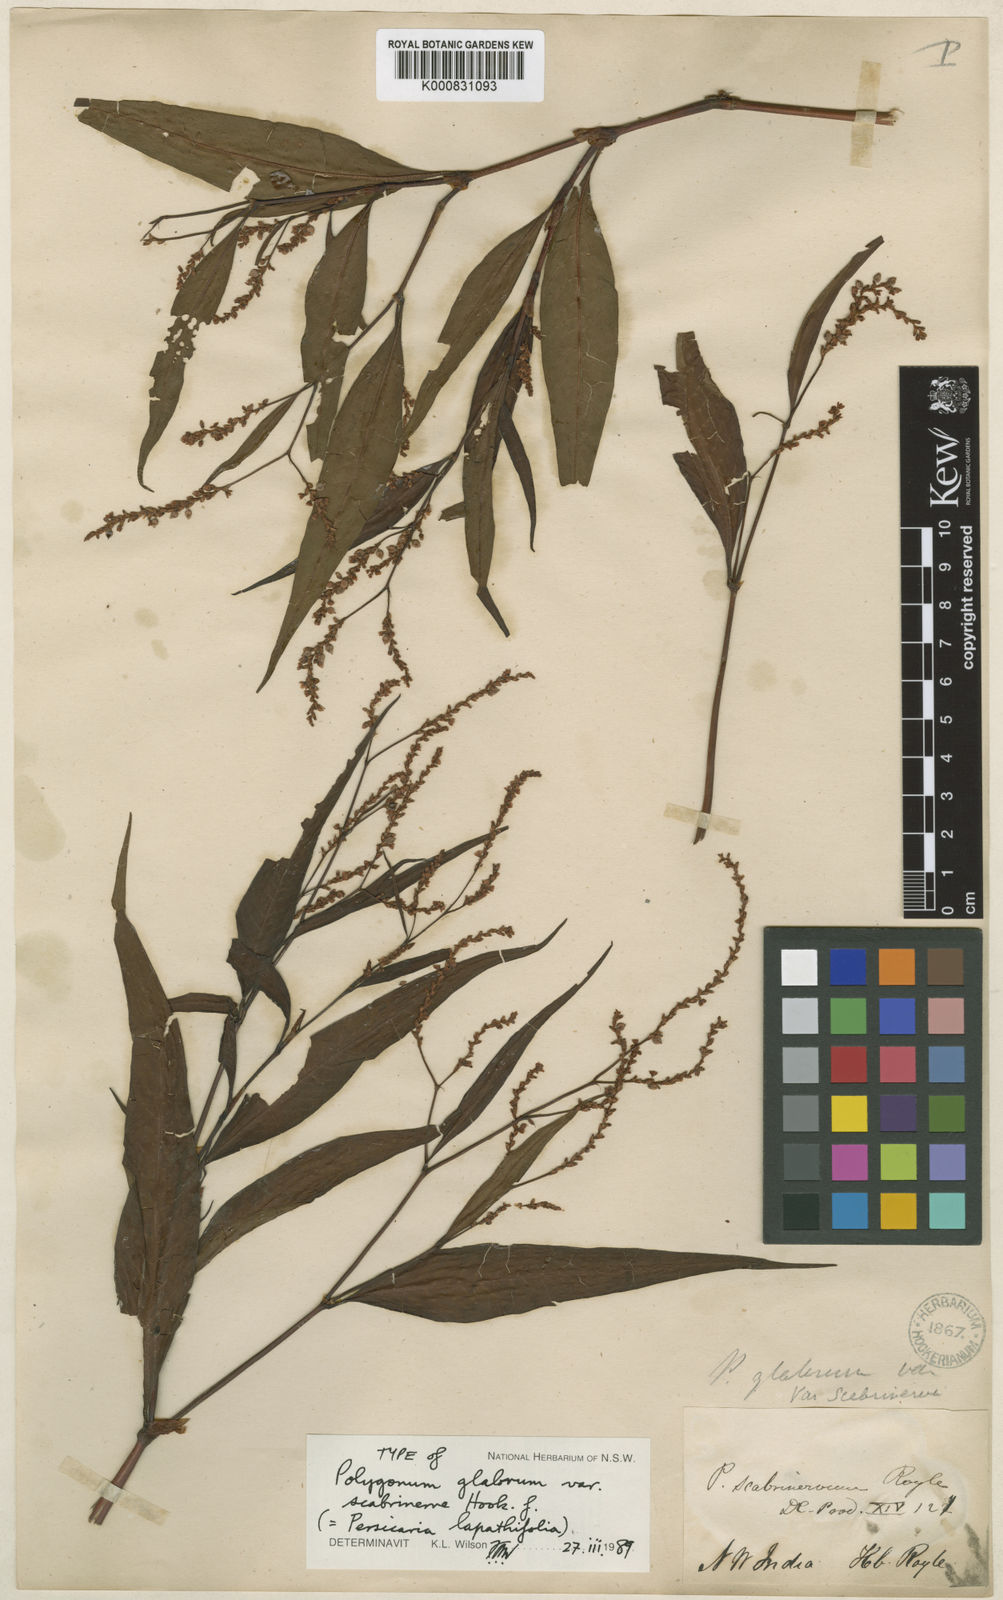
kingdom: Plantae
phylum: Tracheophyta
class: Magnoliopsida
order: Caryophyllales
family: Polygonaceae
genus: Persicaria
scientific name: Persicaria
